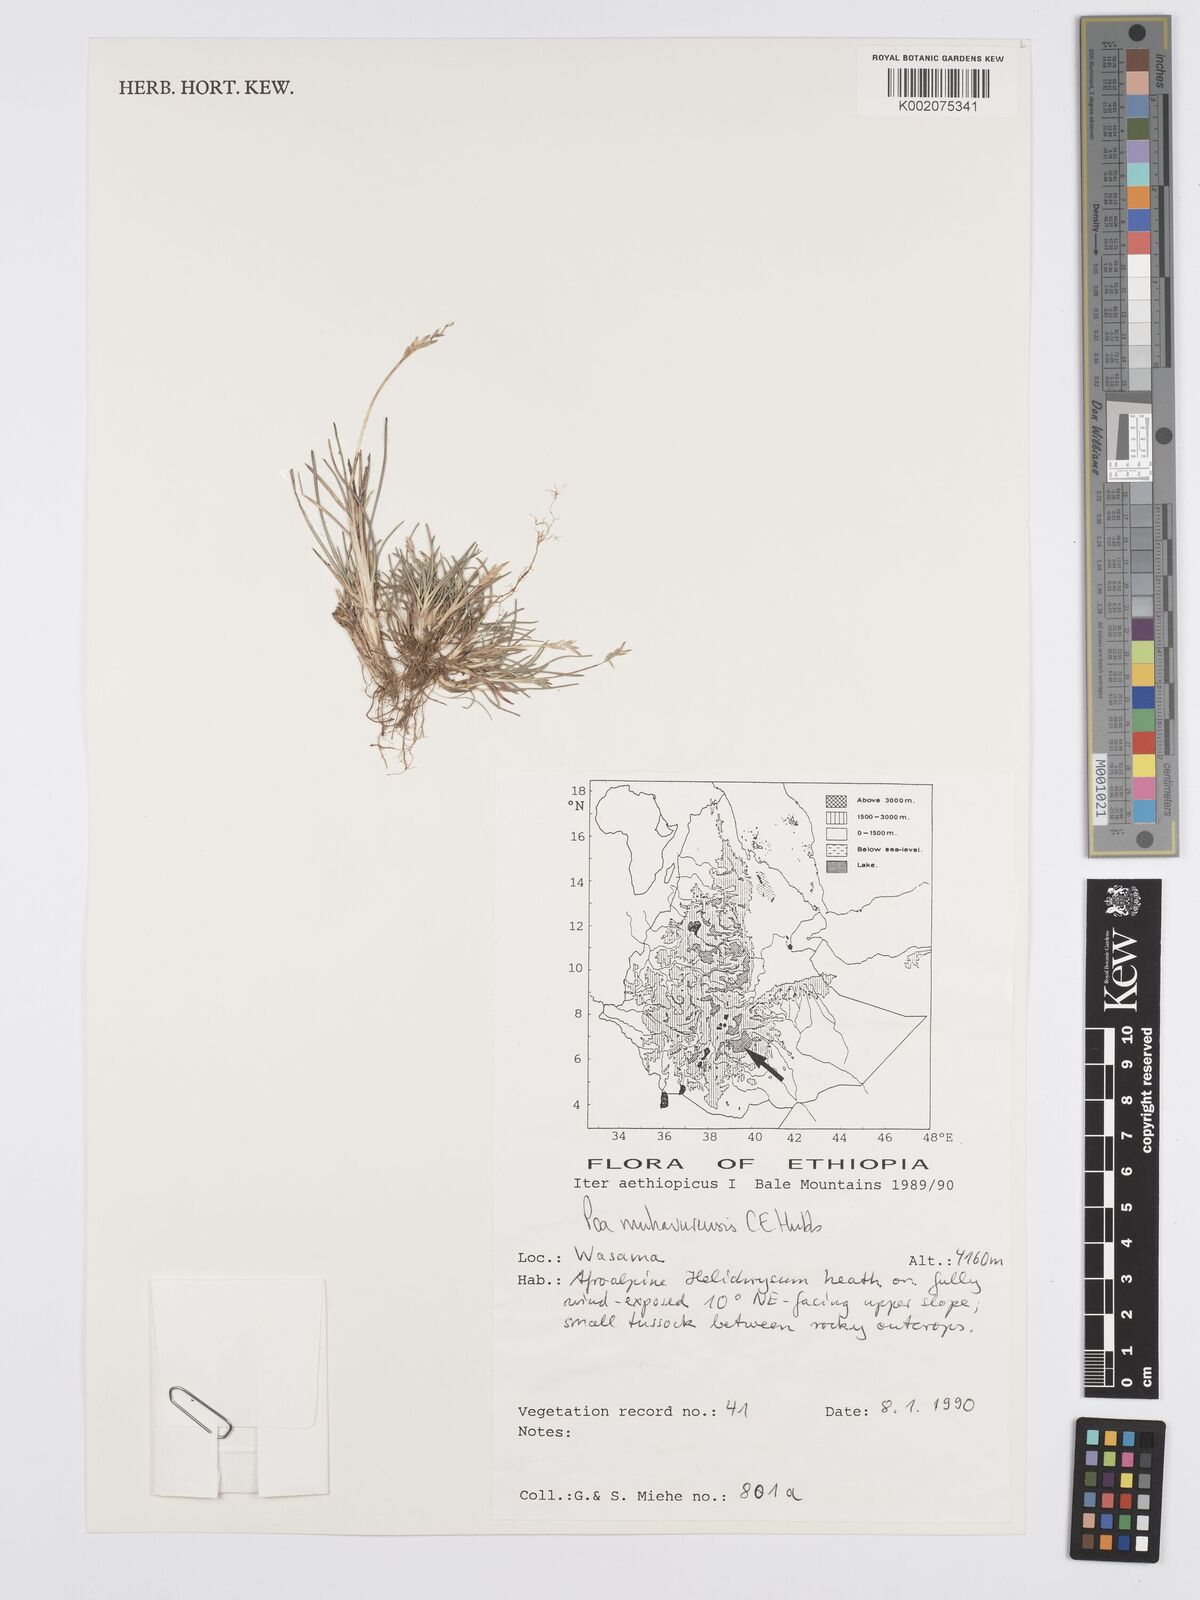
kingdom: Plantae
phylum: Tracheophyta
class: Liliopsida
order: Poales
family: Poaceae
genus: Poa
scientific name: Poa schimperiana
